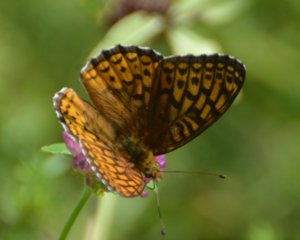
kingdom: Animalia
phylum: Arthropoda
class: Insecta
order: Lepidoptera
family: Nymphalidae
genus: Speyeria
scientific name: Speyeria atlantis
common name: Atlantis Fritillary
